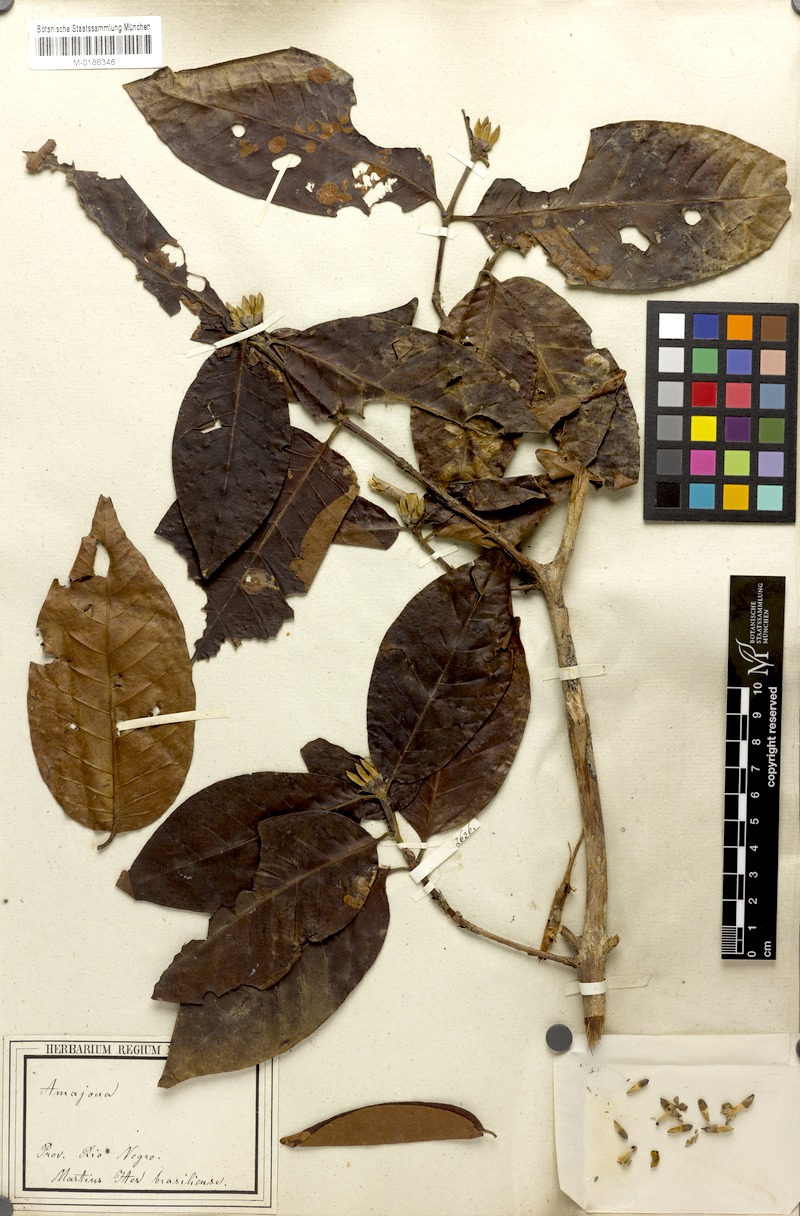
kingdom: Plantae
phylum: Tracheophyta
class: Magnoliopsida
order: Gentianales
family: Rubiaceae
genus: Alibertia
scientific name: Alibertia latifolia
